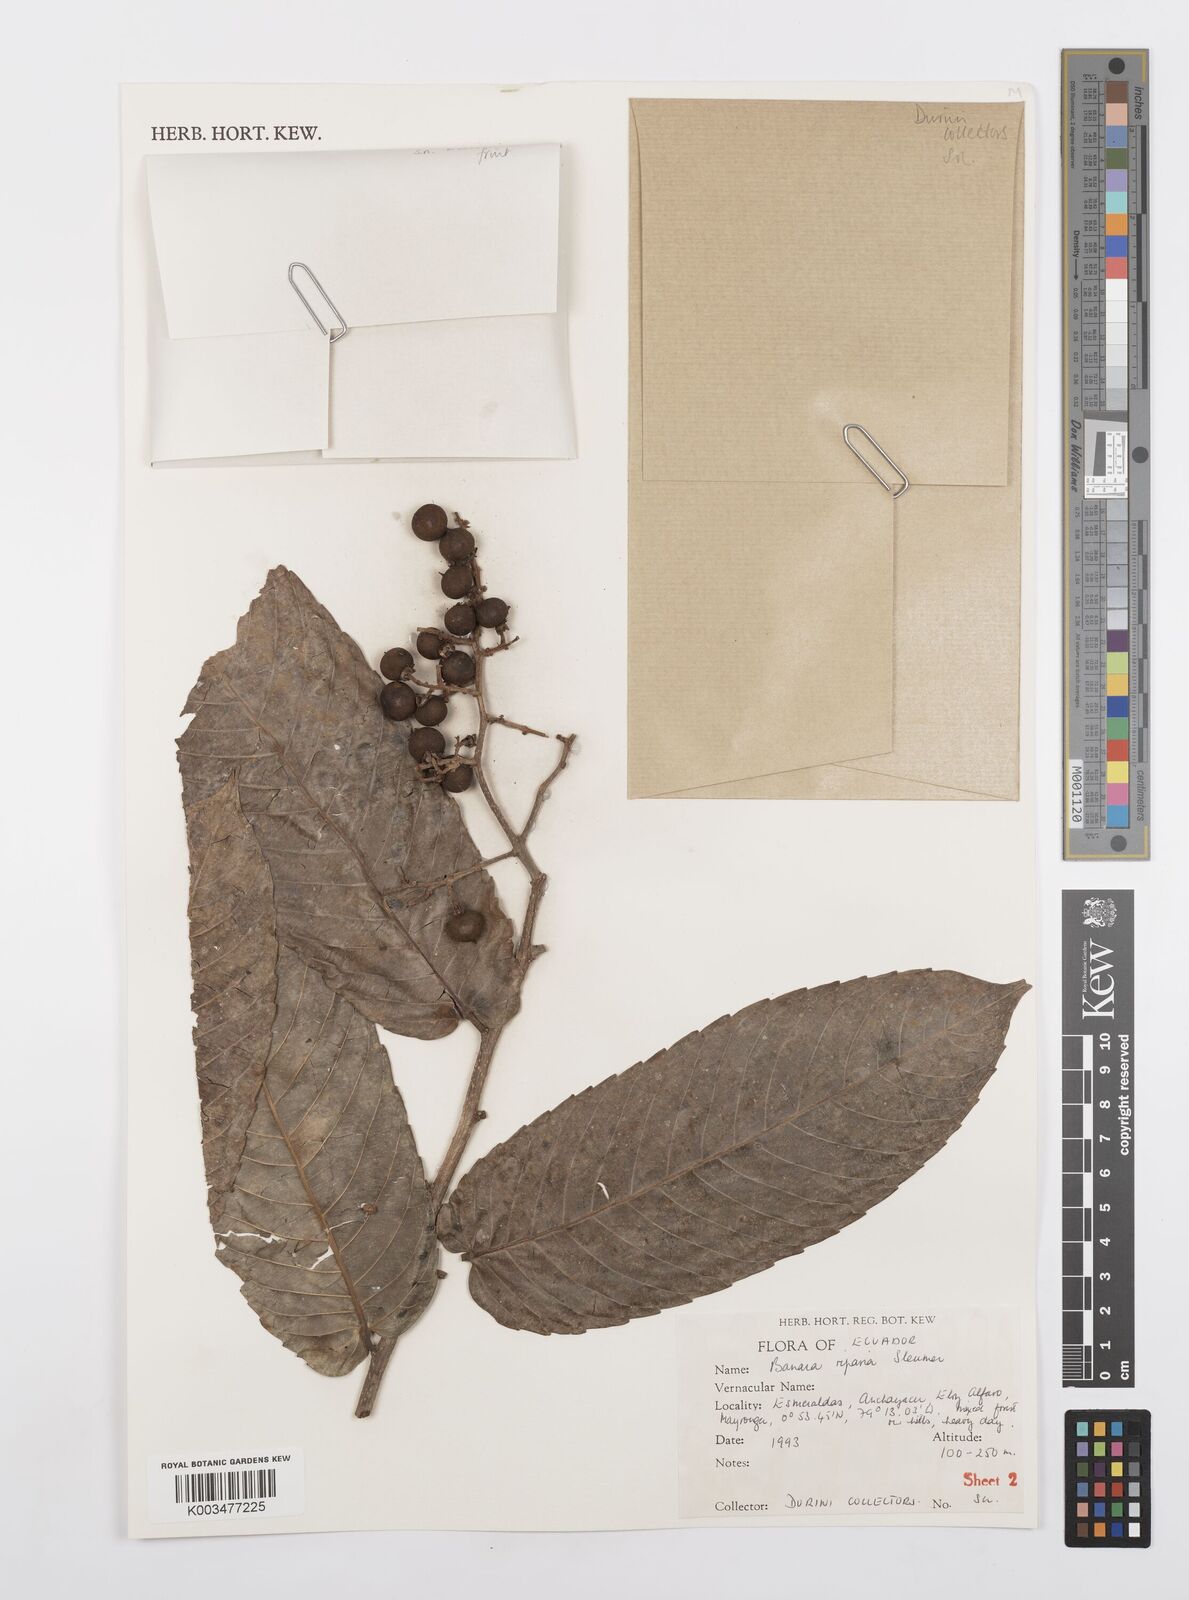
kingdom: Plantae
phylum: Tracheophyta
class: Magnoliopsida
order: Malpighiales
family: Salicaceae
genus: Banara
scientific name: Banara riparia
